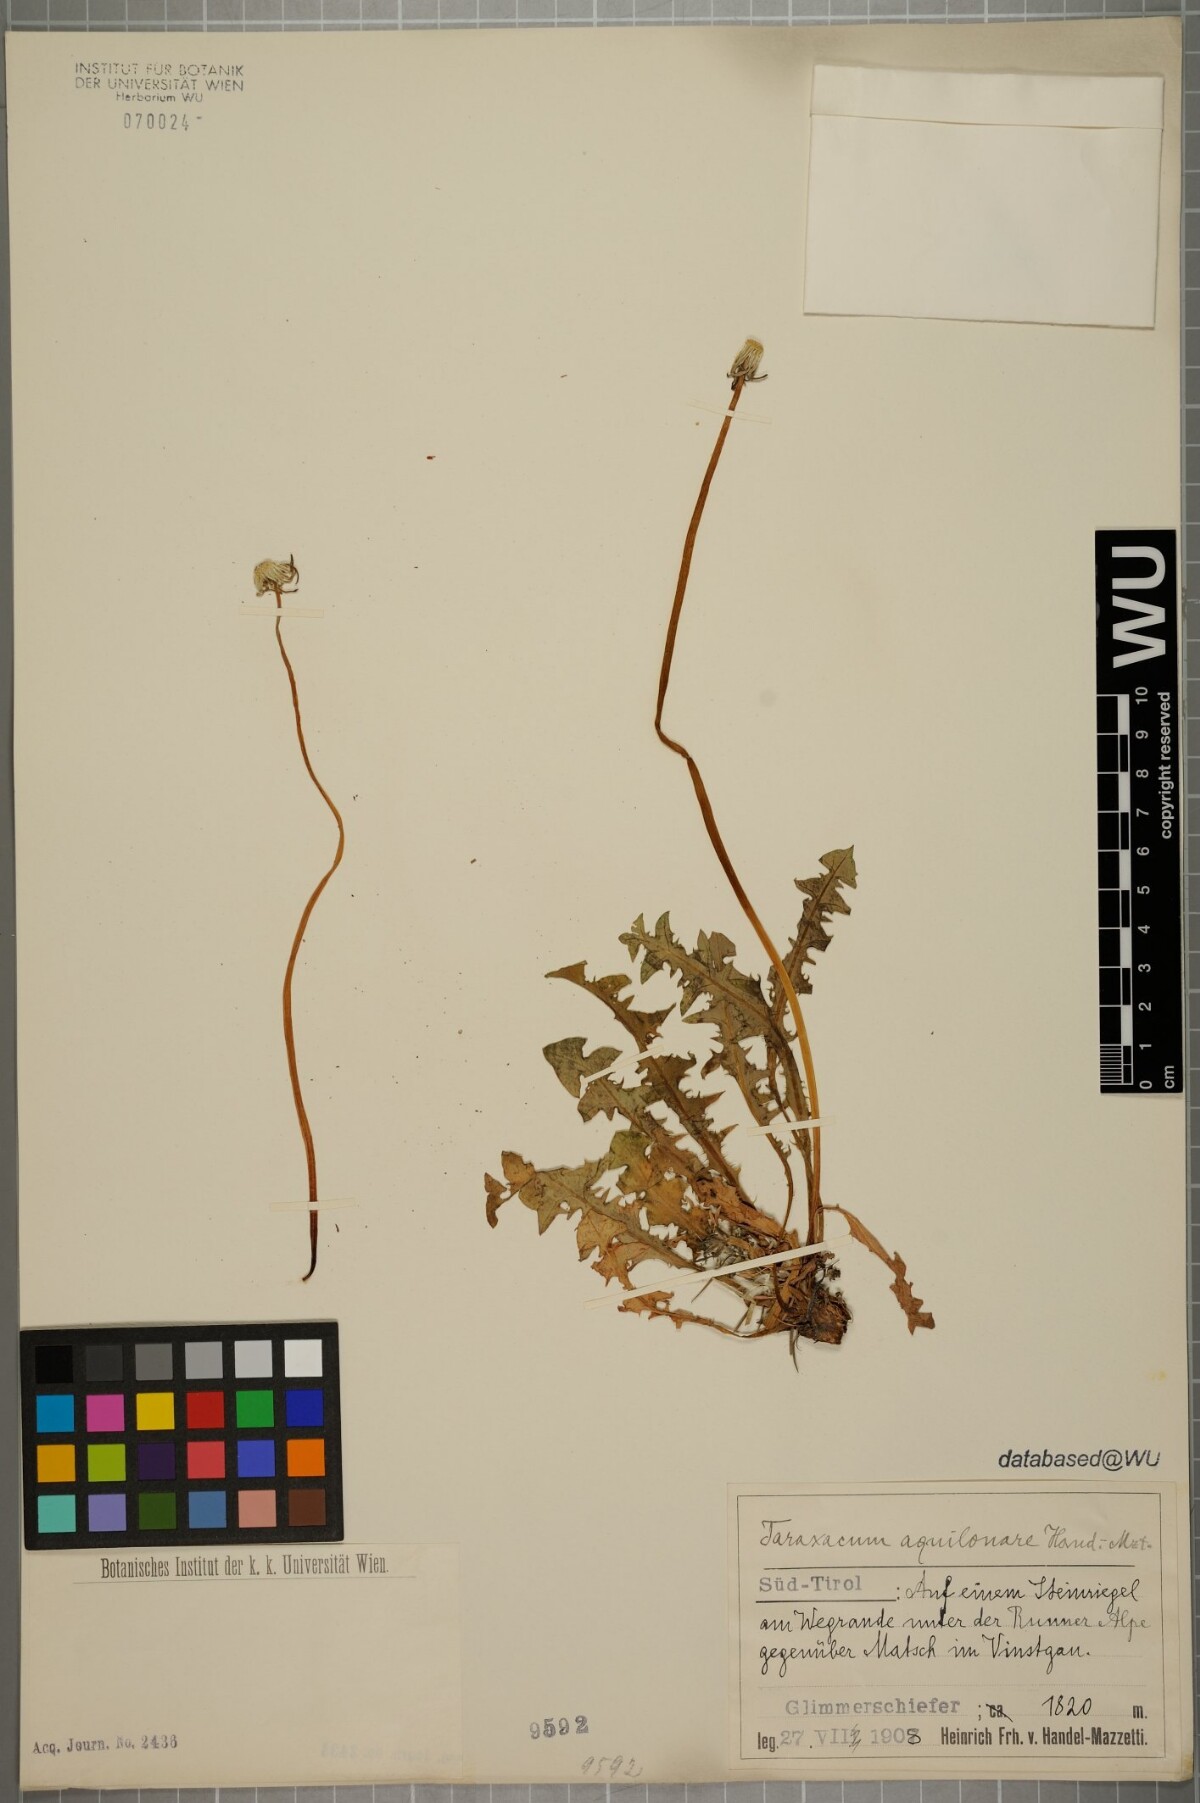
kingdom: Plantae
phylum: Tracheophyta
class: Magnoliopsida
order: Asterales
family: Asteraceae
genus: Taraxacum
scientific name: Taraxacum aquilonare
